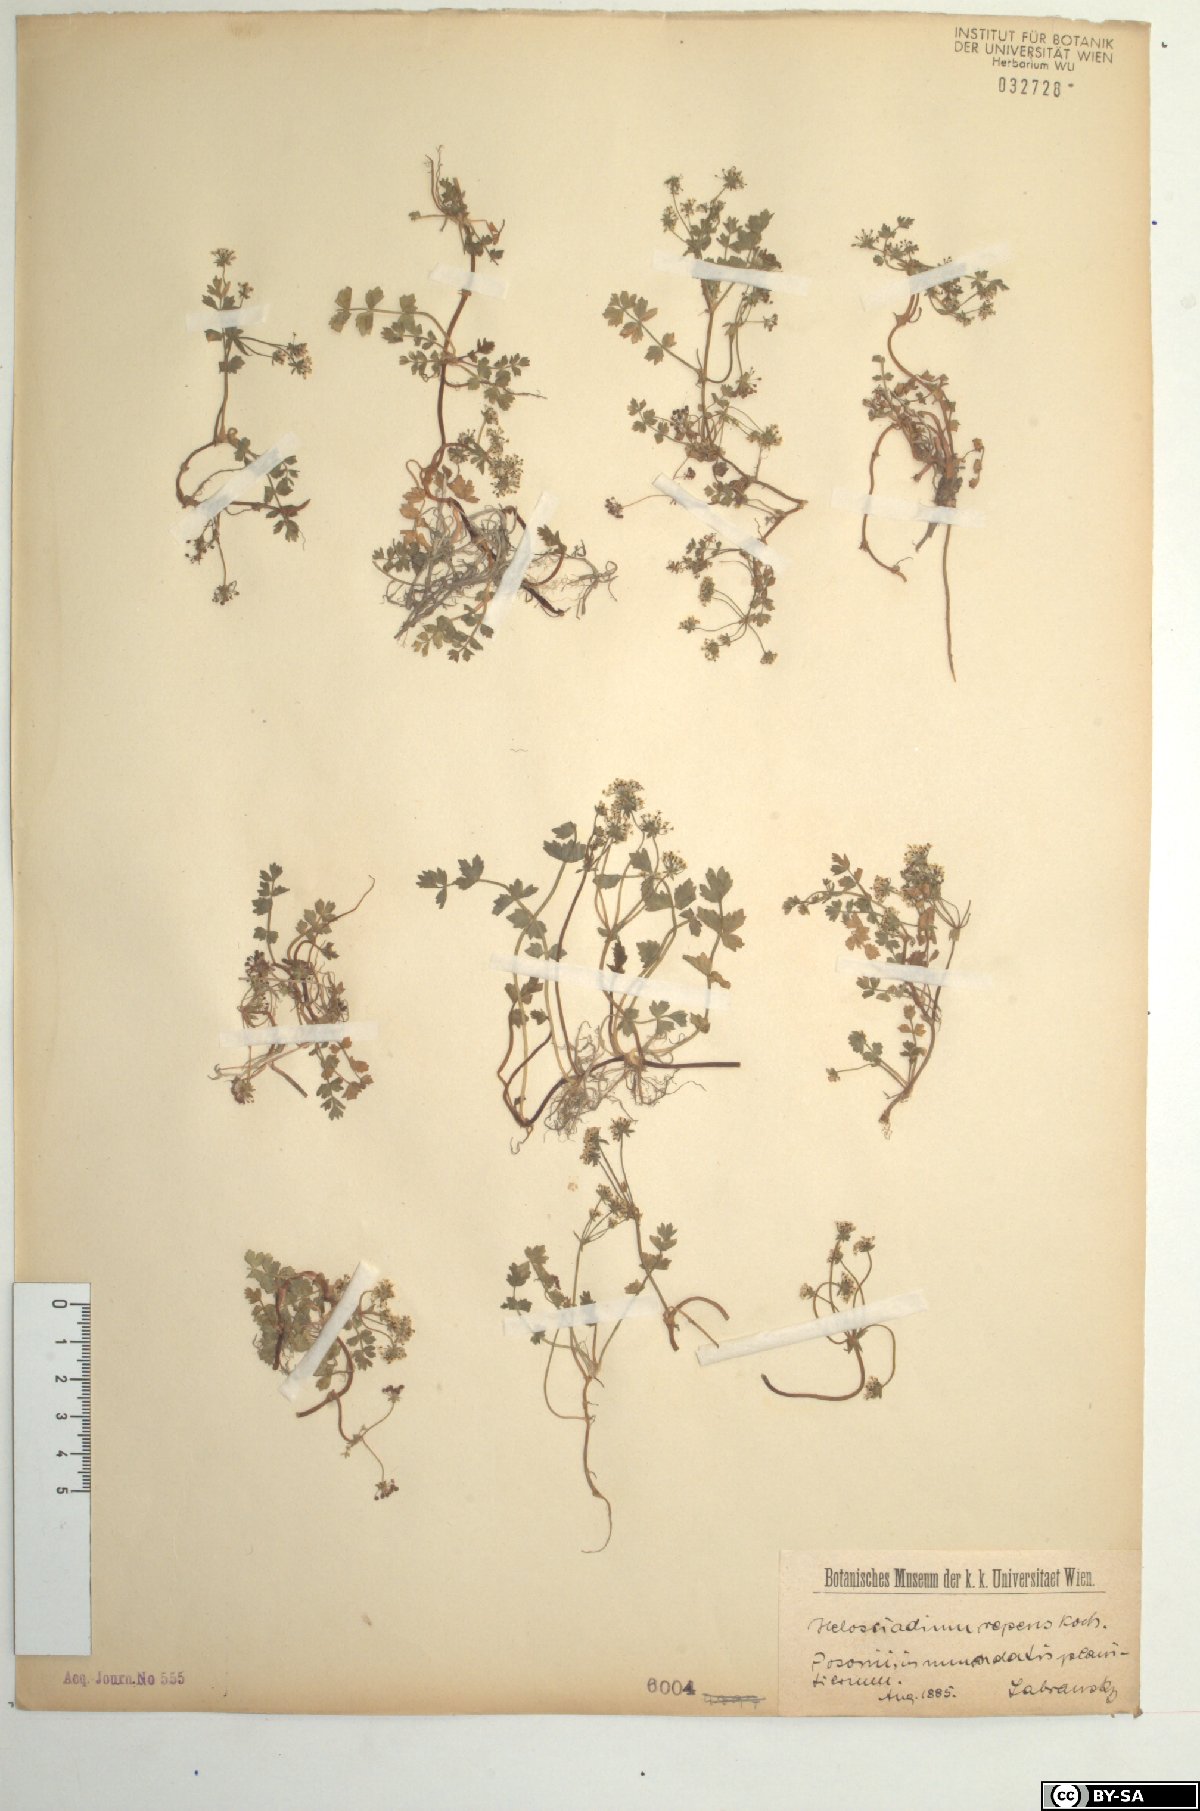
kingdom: Plantae
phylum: Tracheophyta
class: Magnoliopsida
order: Apiales
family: Apiaceae
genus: Helosciadium
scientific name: Helosciadium repens
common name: Creeping marshwort
